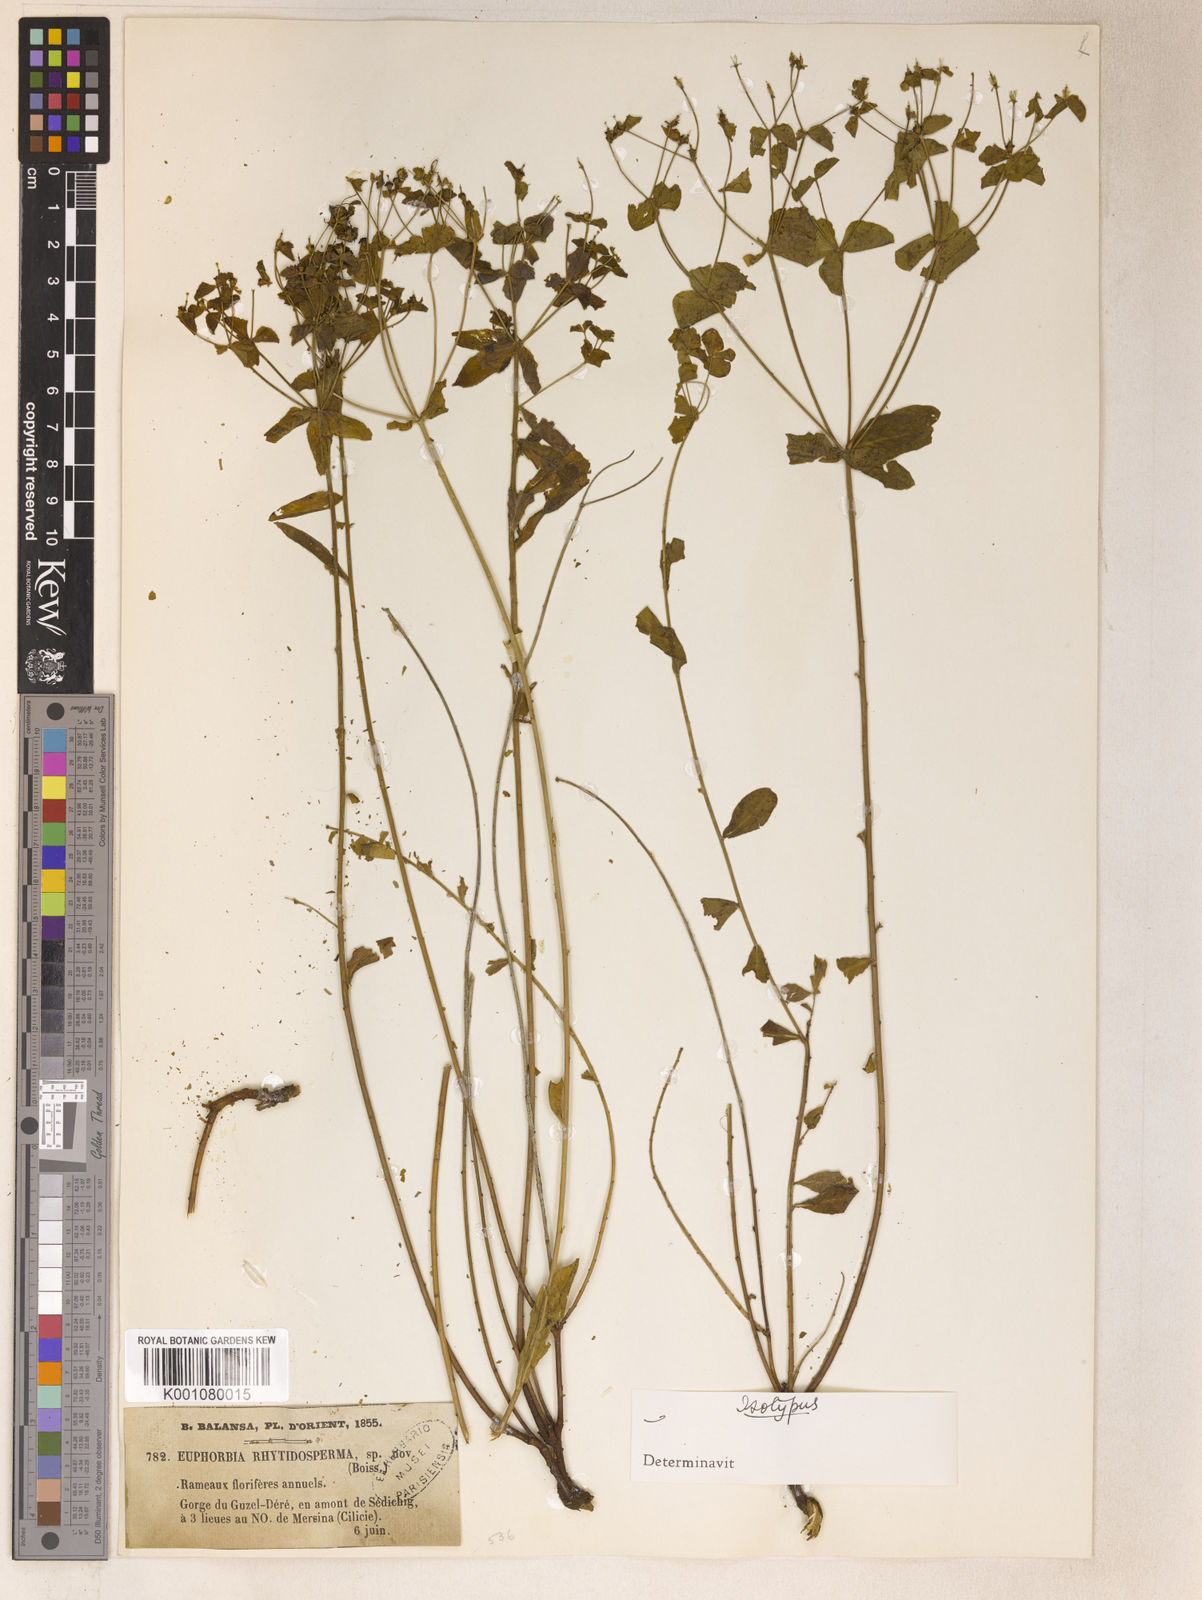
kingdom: Plantae
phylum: Tracheophyta
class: Magnoliopsida
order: Malpighiales
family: Euphorbiaceae
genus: Euphorbia
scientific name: Euphorbia rhytidosperma
